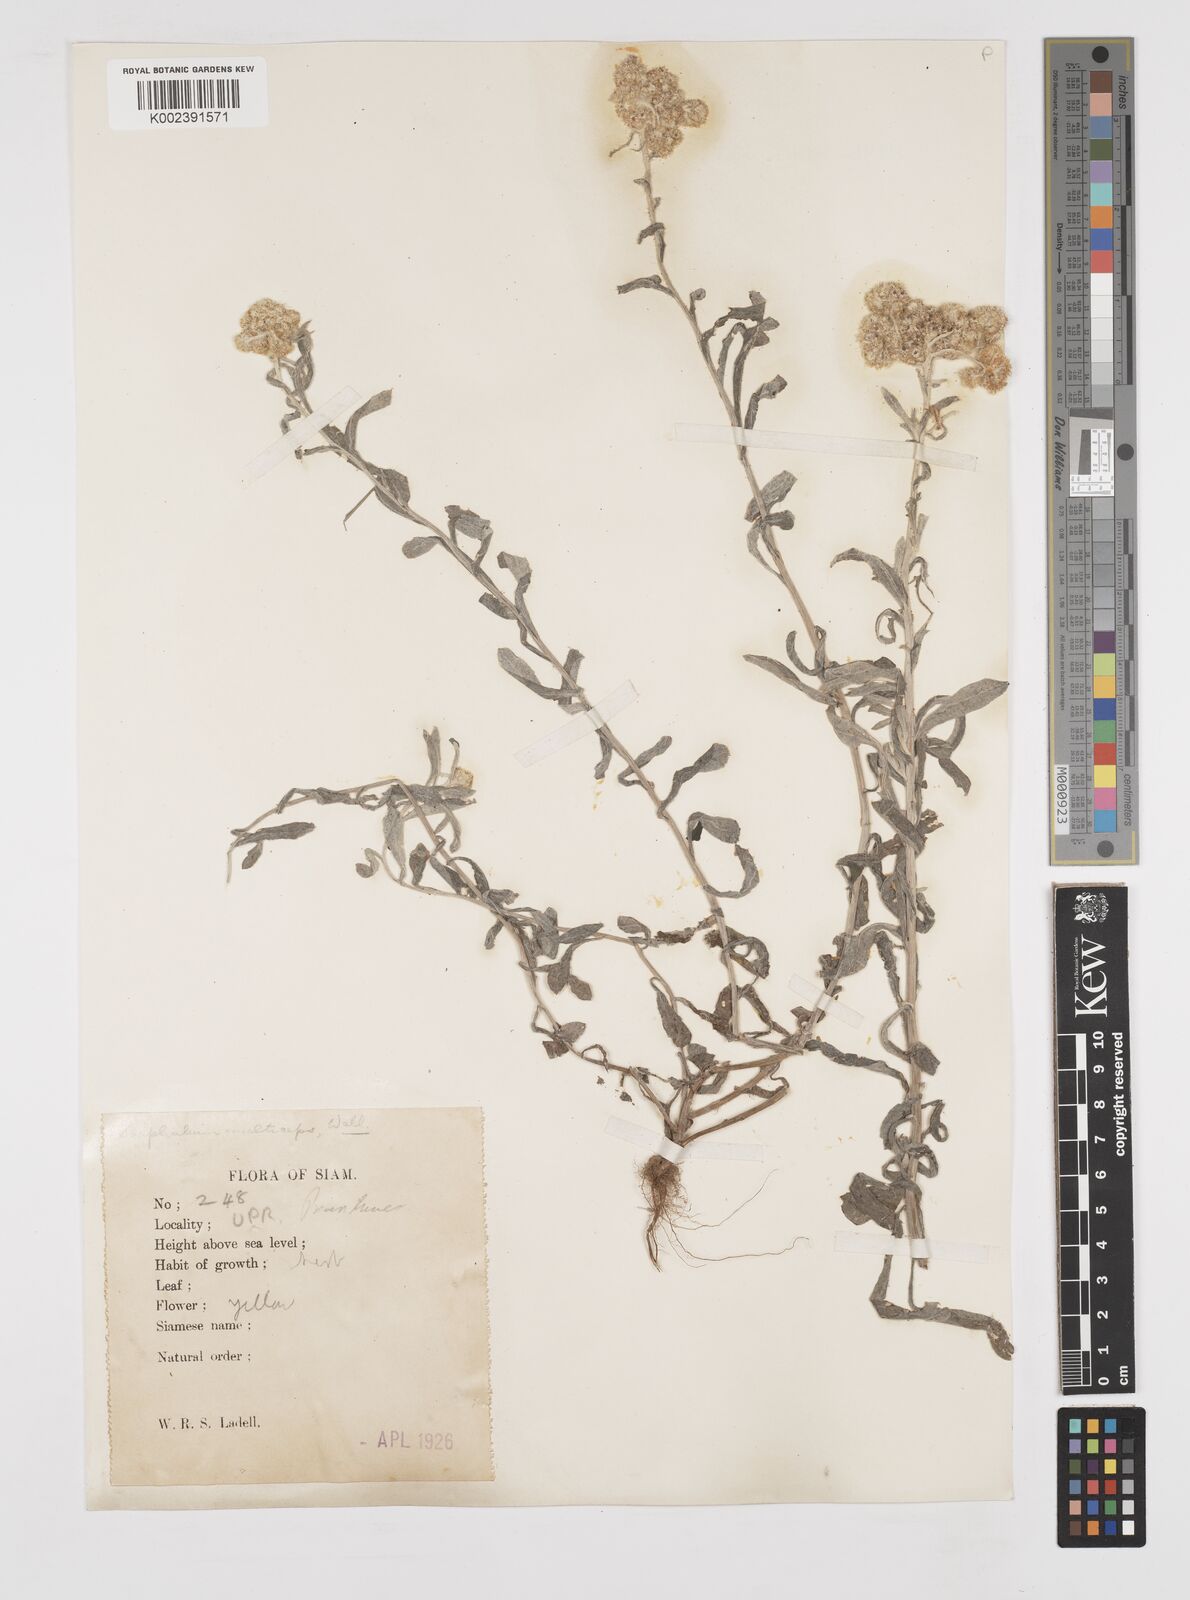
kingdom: Plantae
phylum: Tracheophyta
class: Magnoliopsida
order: Asterales
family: Asteraceae
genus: Pseudognaphalium
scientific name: Pseudognaphalium affine
